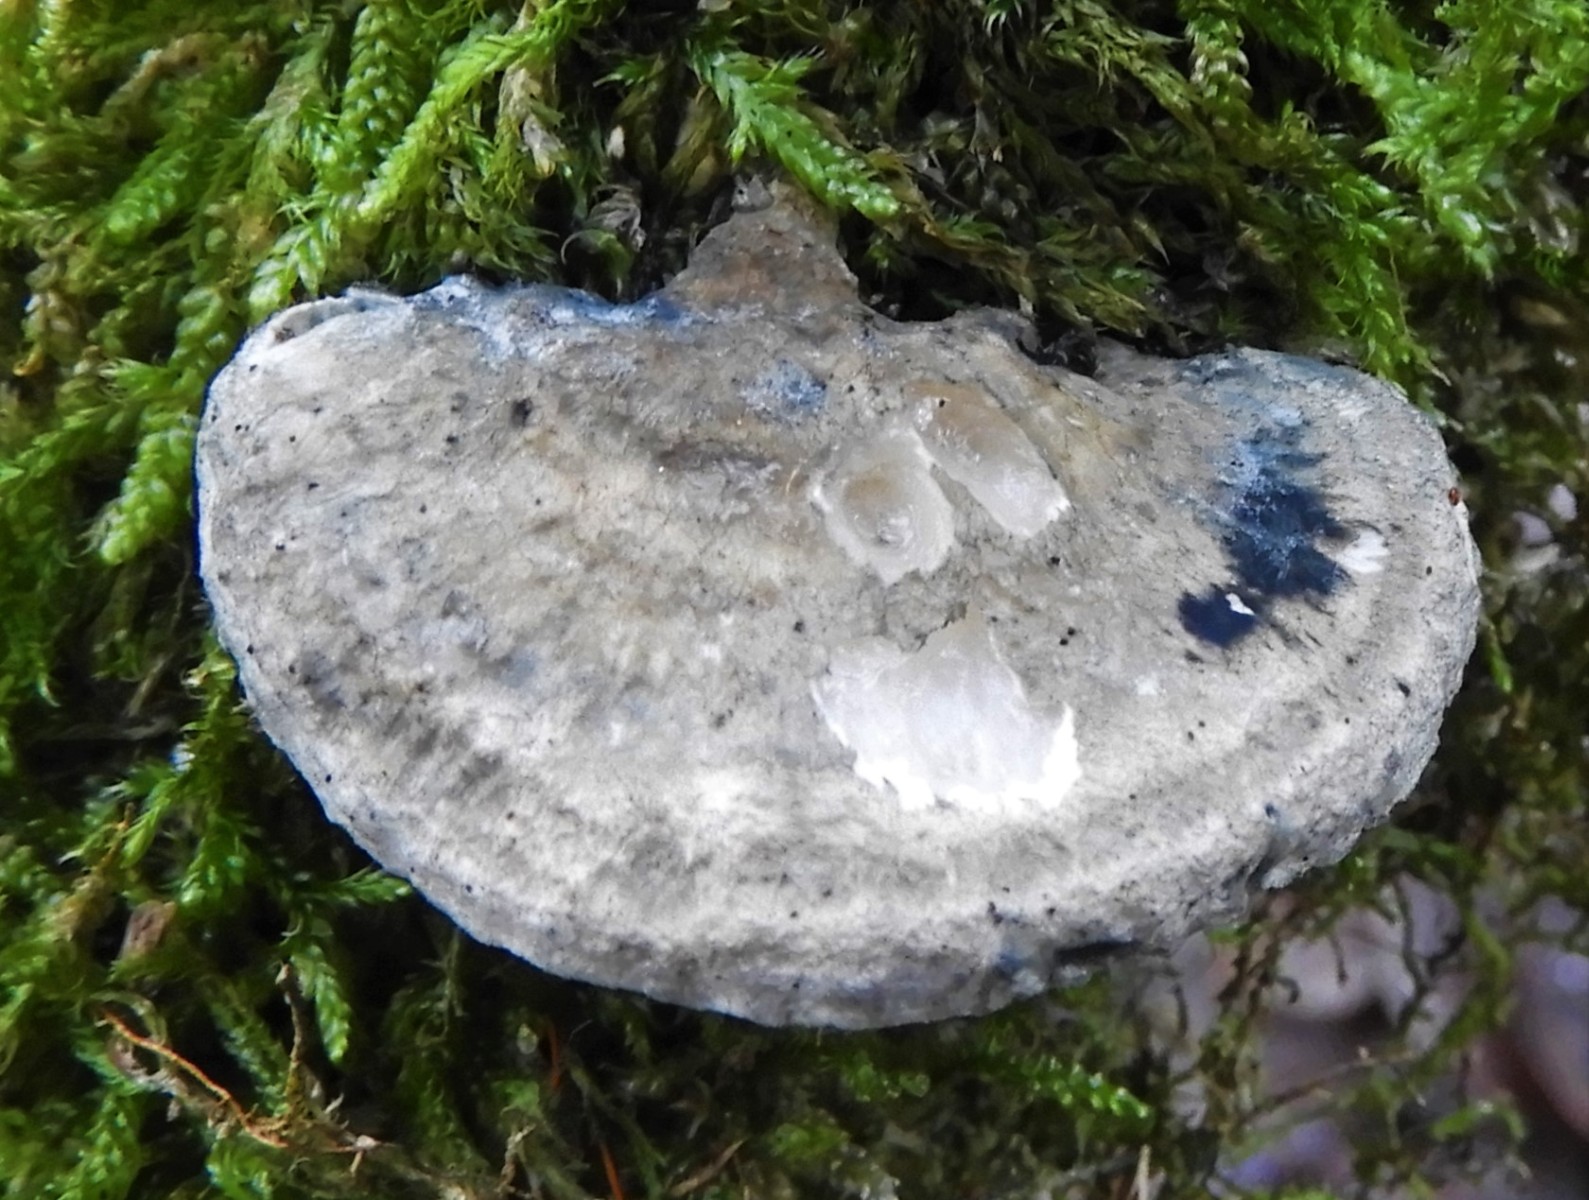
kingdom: Fungi
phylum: Basidiomycota
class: Agaricomycetes
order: Polyporales
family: Polyporaceae
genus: Cyanosporus
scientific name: Cyanosporus alni
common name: blegblå kødporesvamp
